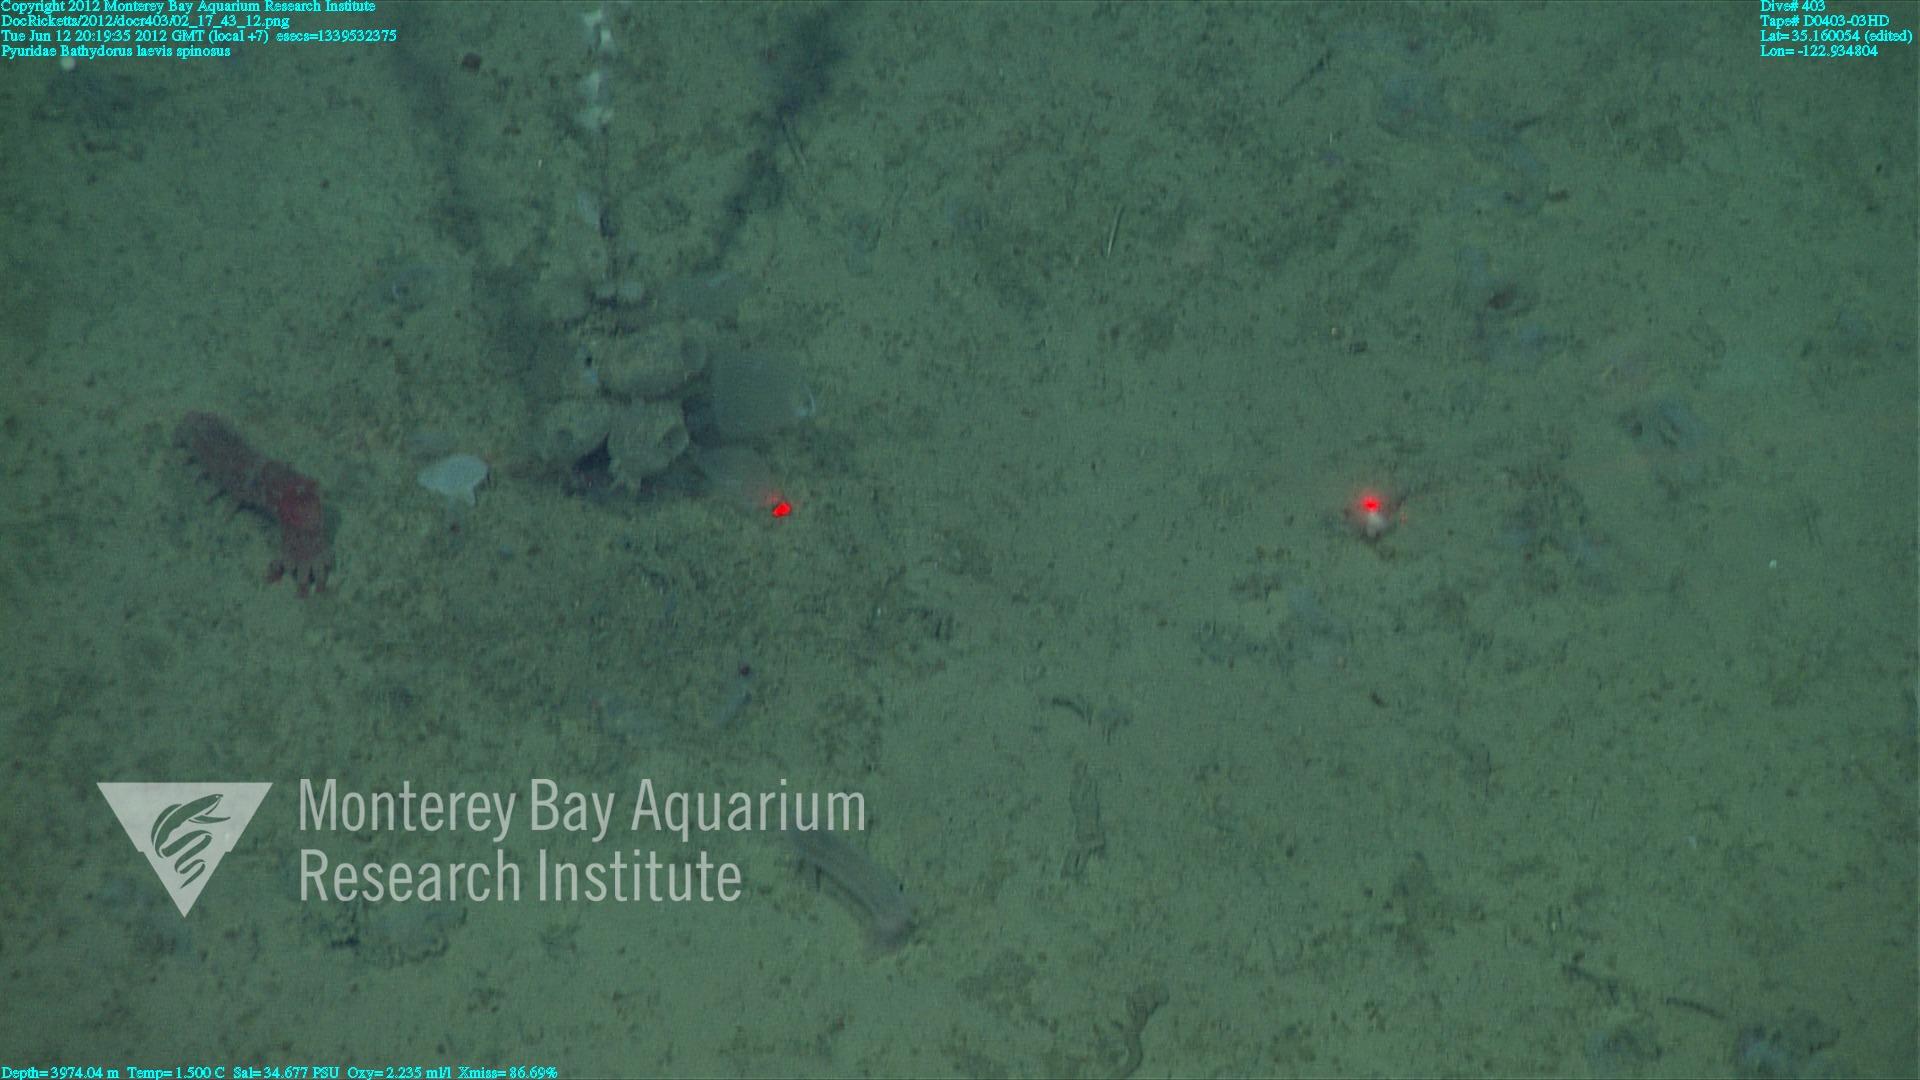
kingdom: Animalia
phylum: Porifera
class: Hexactinellida
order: Lyssacinosida
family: Rossellidae
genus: Bathydorus
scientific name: Bathydorus spinosus
